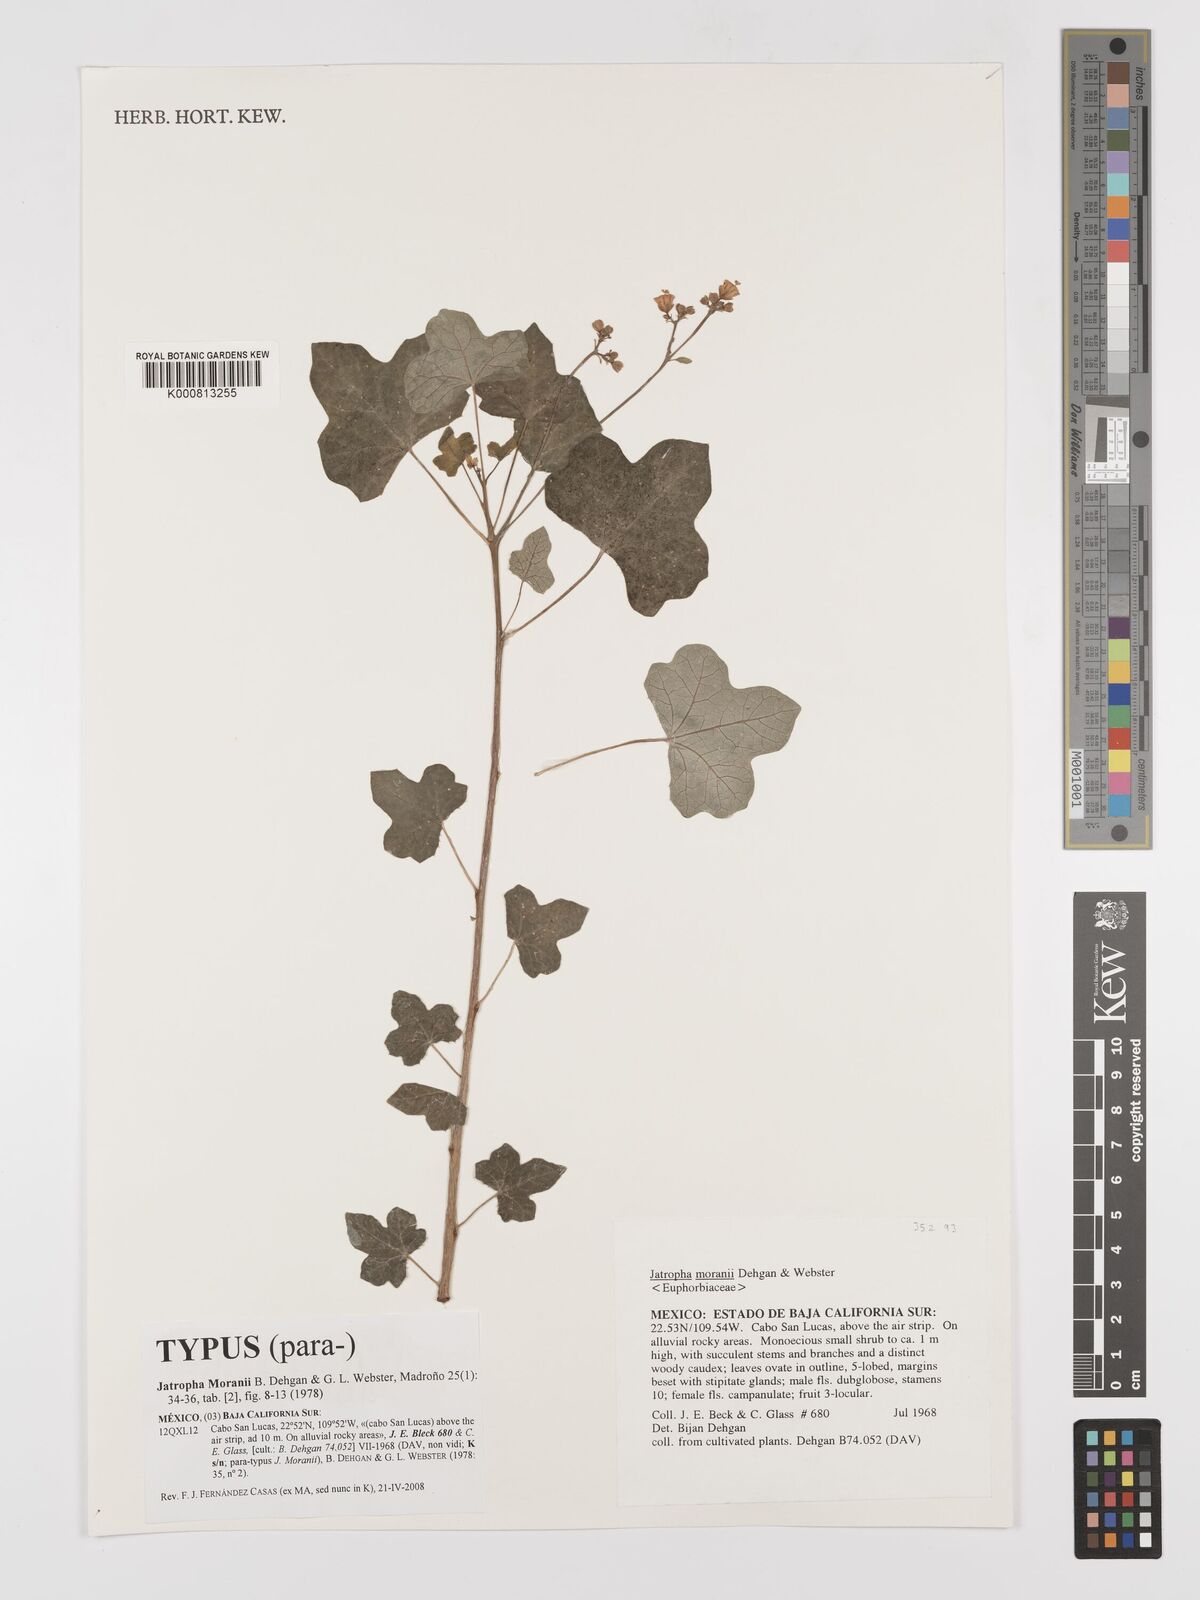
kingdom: Plantae
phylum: Tracheophyta
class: Magnoliopsida
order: Malpighiales
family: Euphorbiaceae
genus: Jatropha
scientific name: Jatropha moranii
